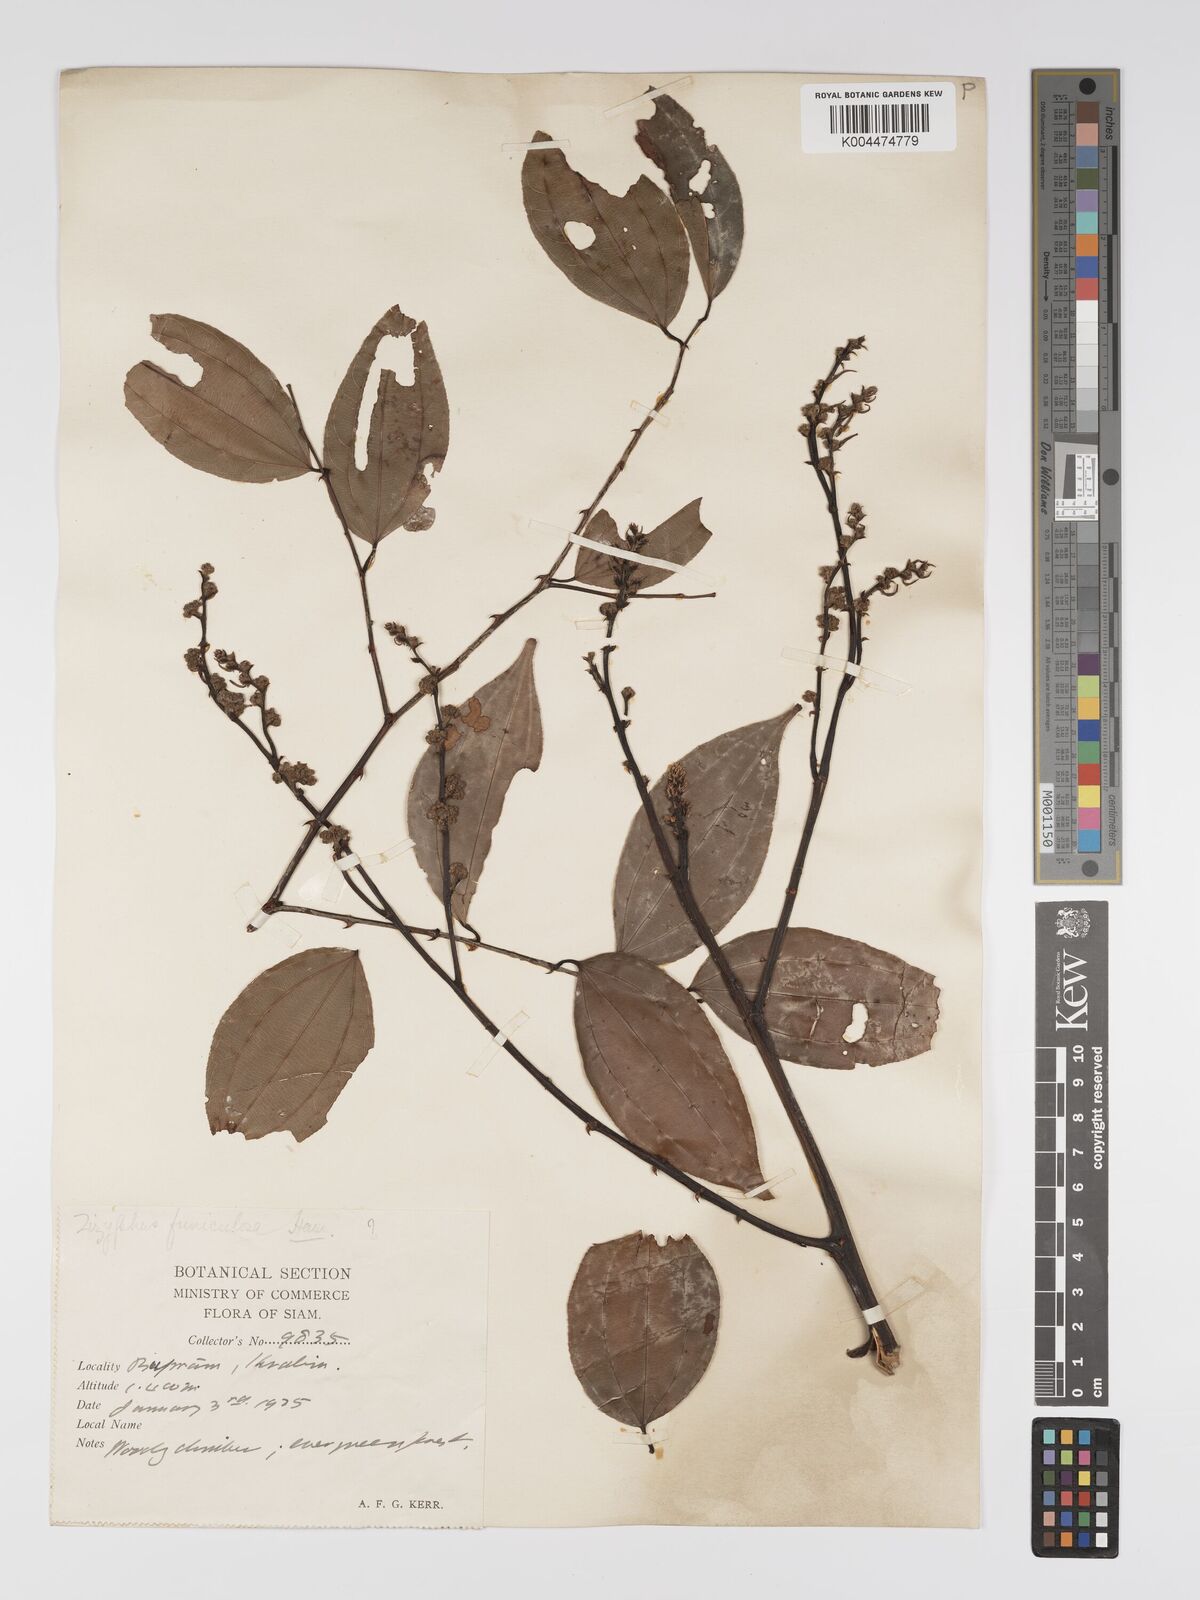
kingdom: Plantae
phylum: Tracheophyta
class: Magnoliopsida
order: Rosales
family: Rhamnaceae
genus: Ziziphus
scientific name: Ziziphus
